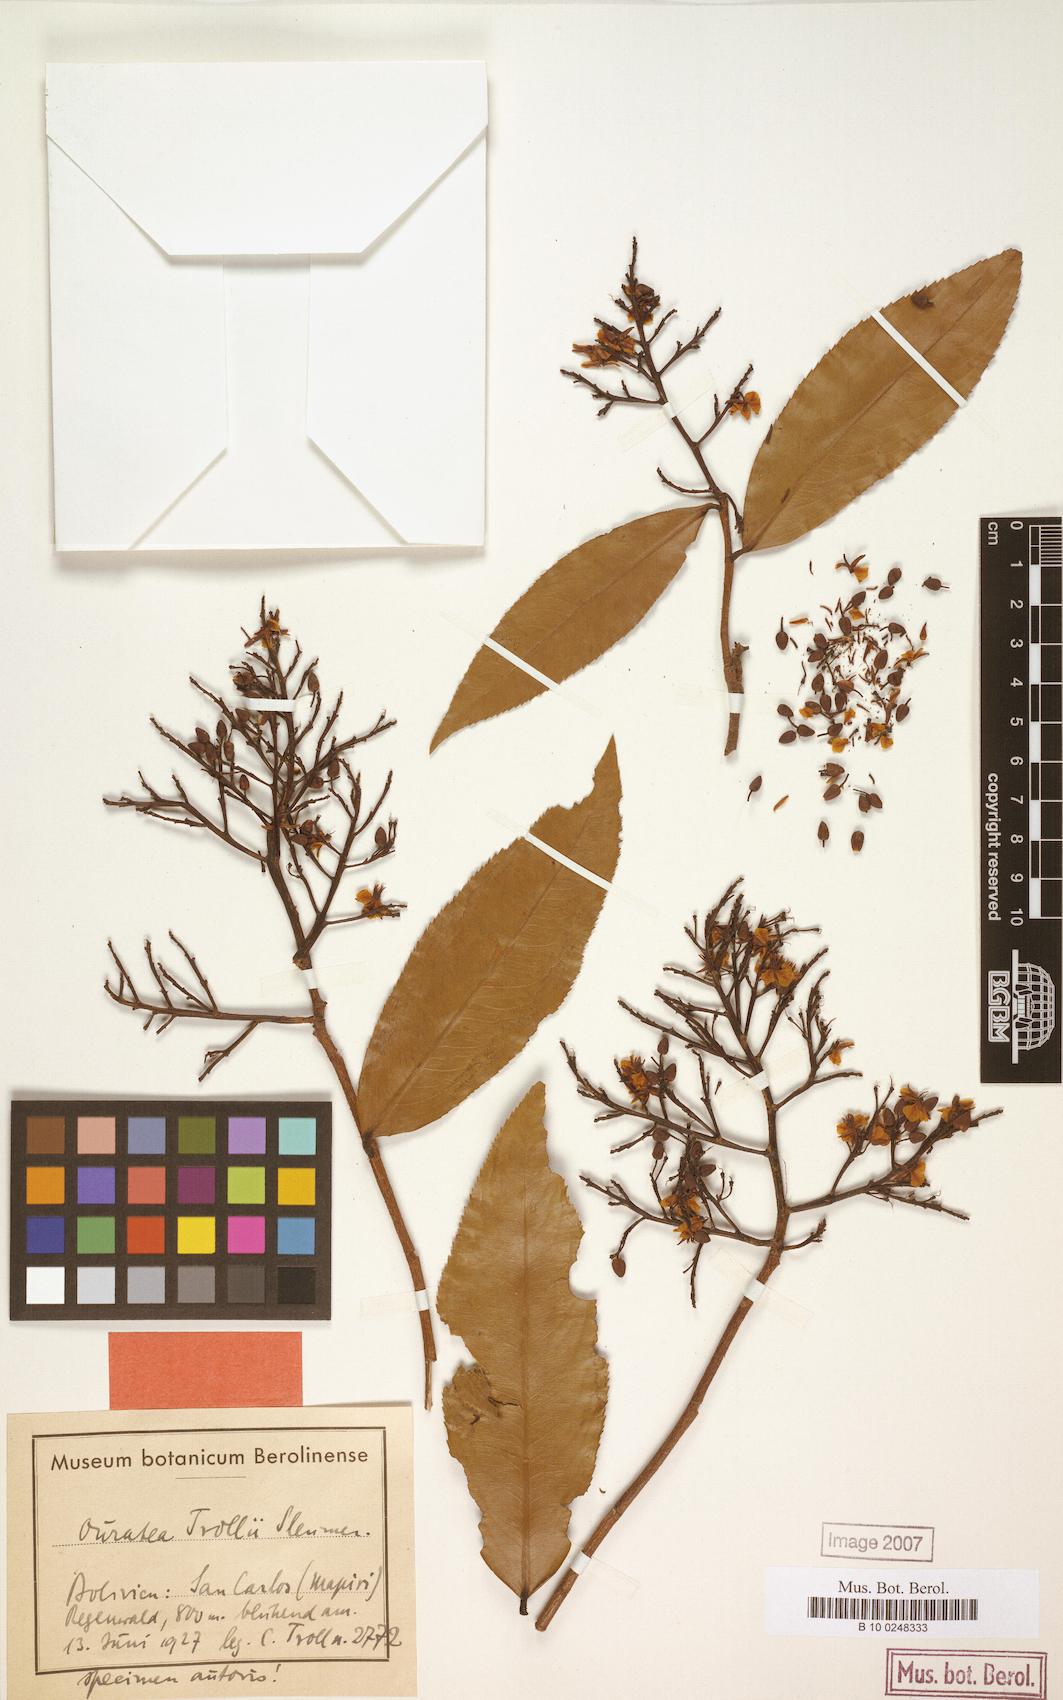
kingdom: Plantae
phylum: Tracheophyta
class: Magnoliopsida
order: Malpighiales
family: Ochnaceae
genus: Ouratea
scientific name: Ouratea trollii
